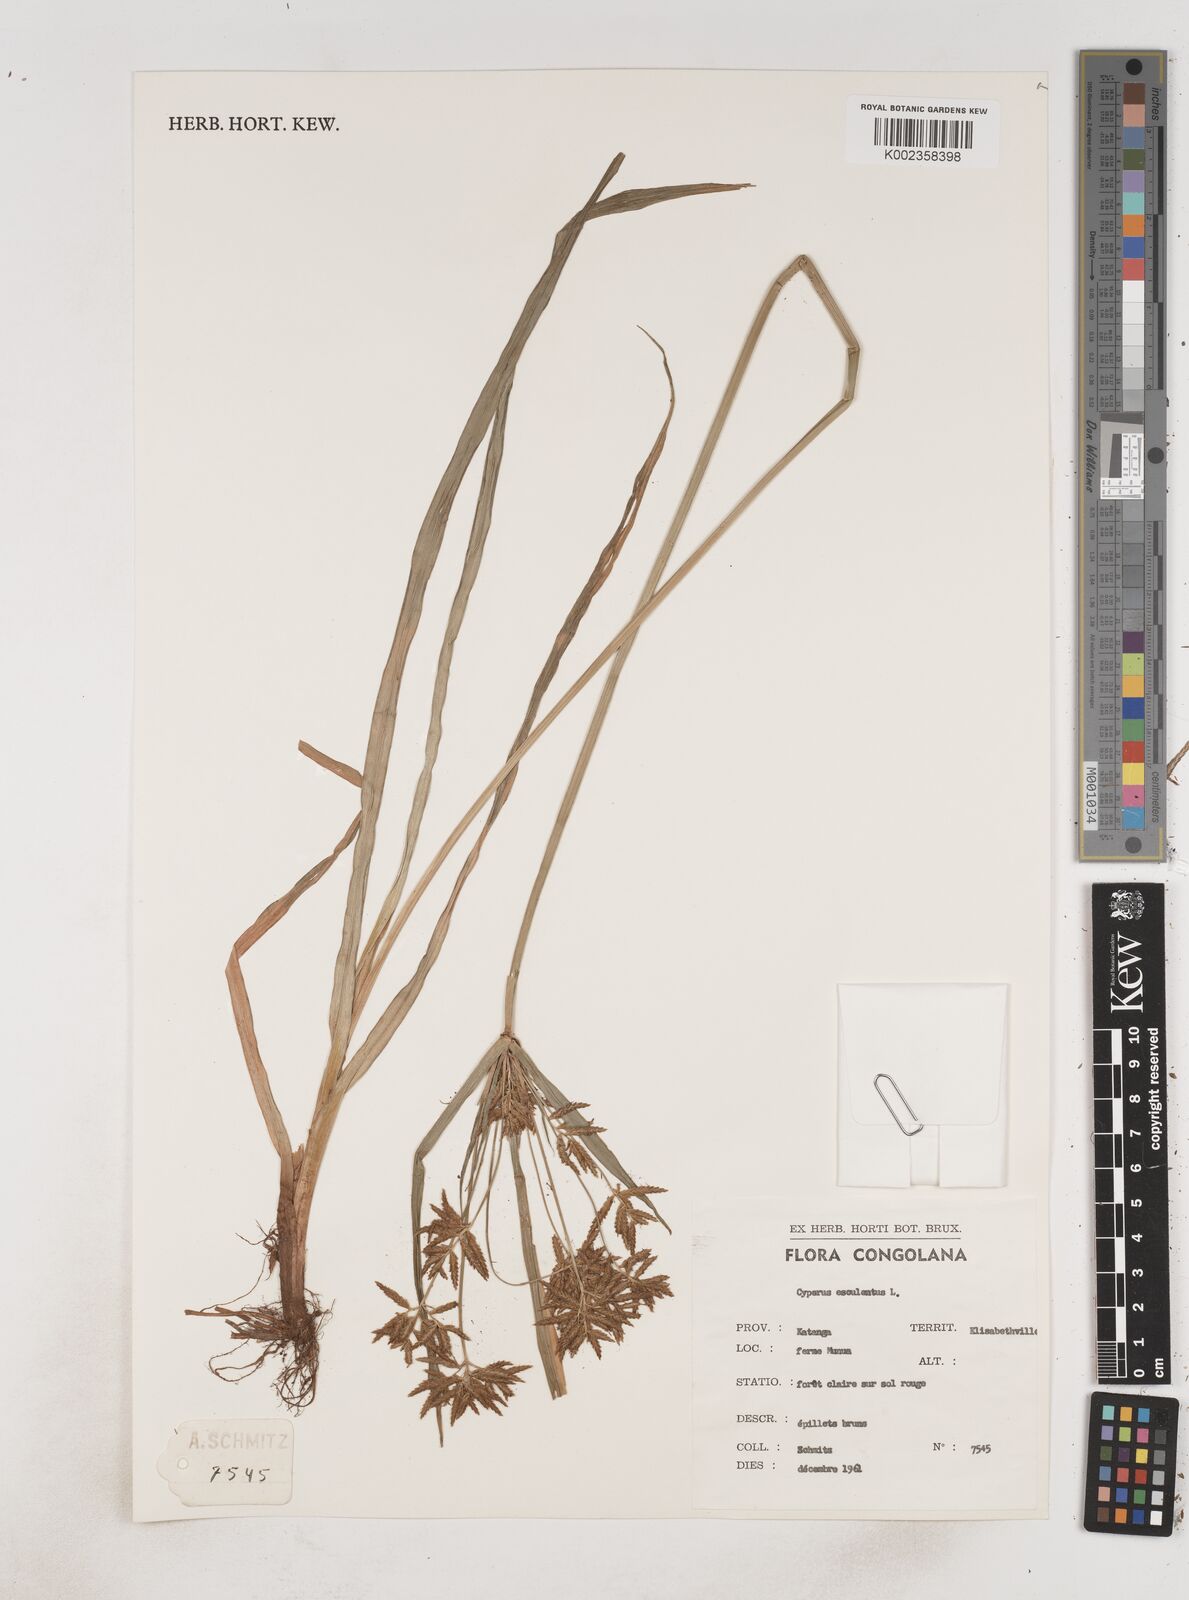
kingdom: Plantae
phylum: Tracheophyta
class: Liliopsida
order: Poales
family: Cyperaceae
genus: Cyperus
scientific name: Cyperus esculentus
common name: Yellow nutsedge
